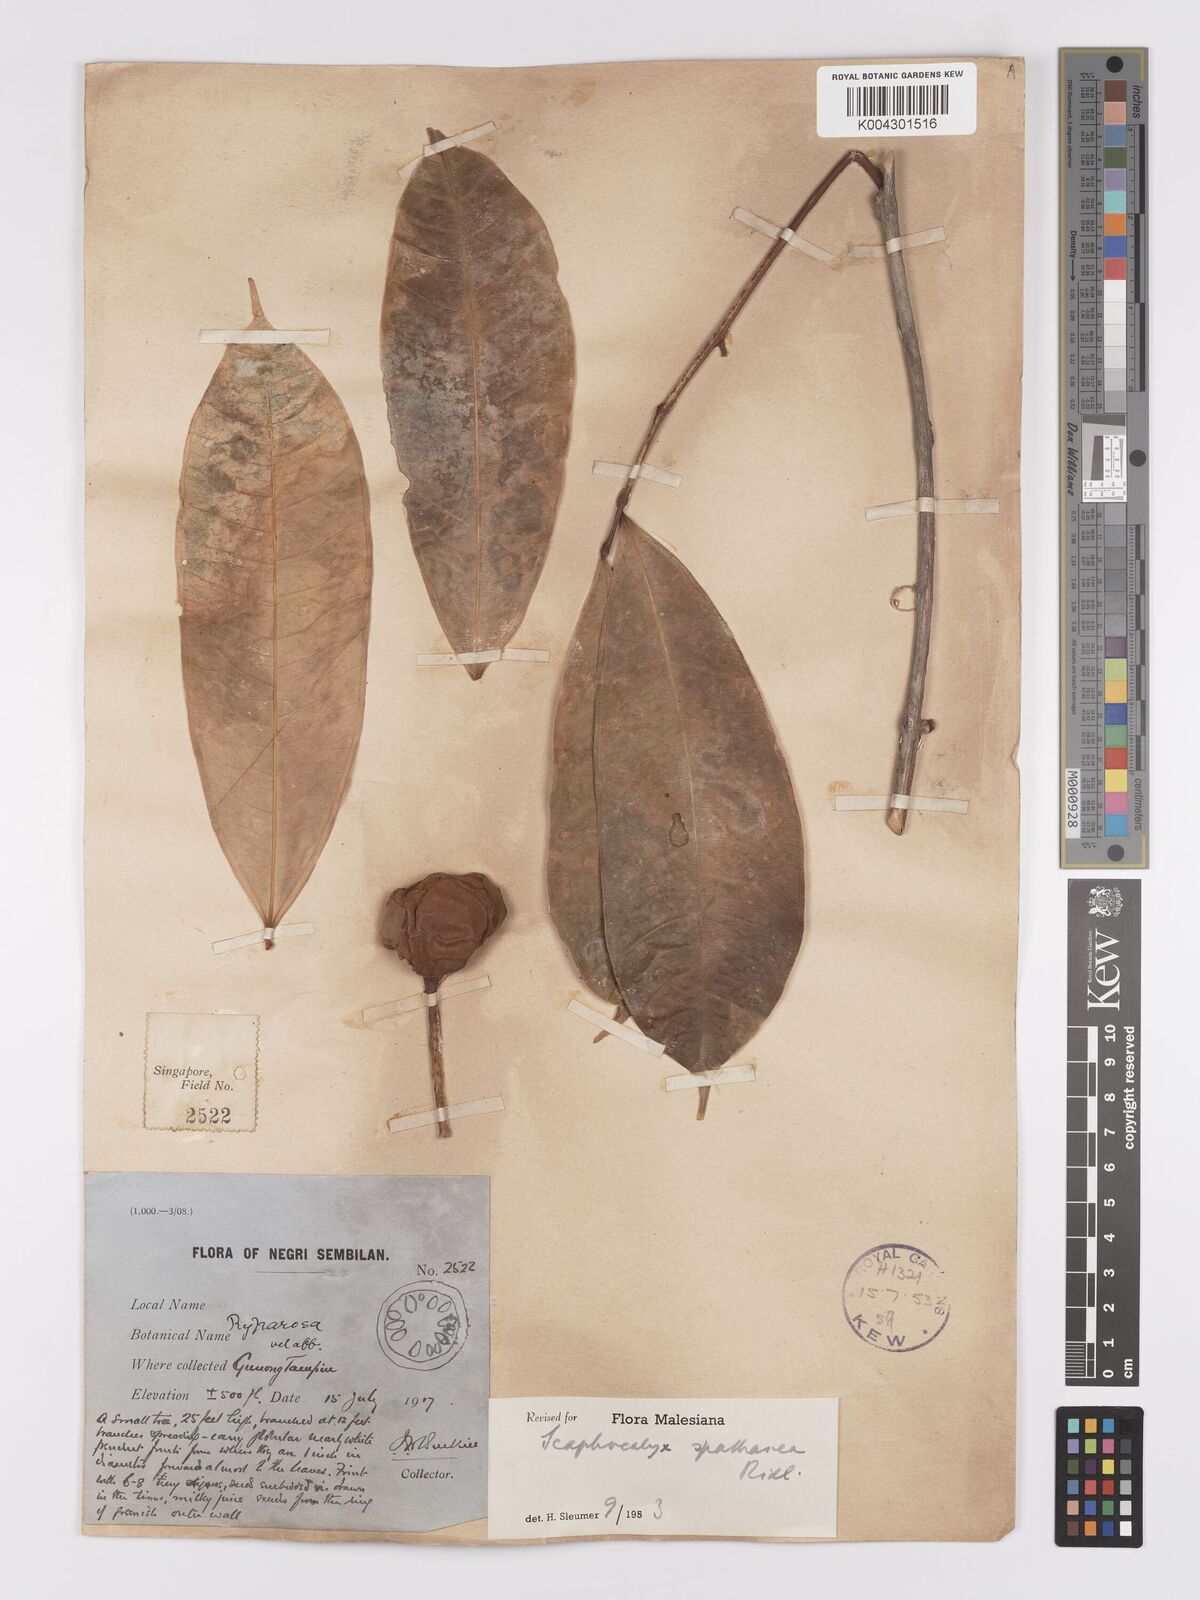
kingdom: Plantae
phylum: Tracheophyta
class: Magnoliopsida
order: Malpighiales
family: Achariaceae
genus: Scaphocalyx
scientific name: Scaphocalyx spathacea
